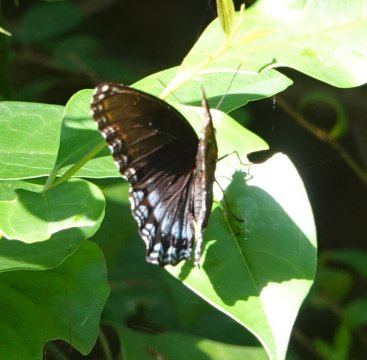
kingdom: Animalia
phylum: Arthropoda
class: Insecta
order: Lepidoptera
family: Nymphalidae
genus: Limenitis
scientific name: Limenitis arthemis
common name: Red-spotted Admiral
